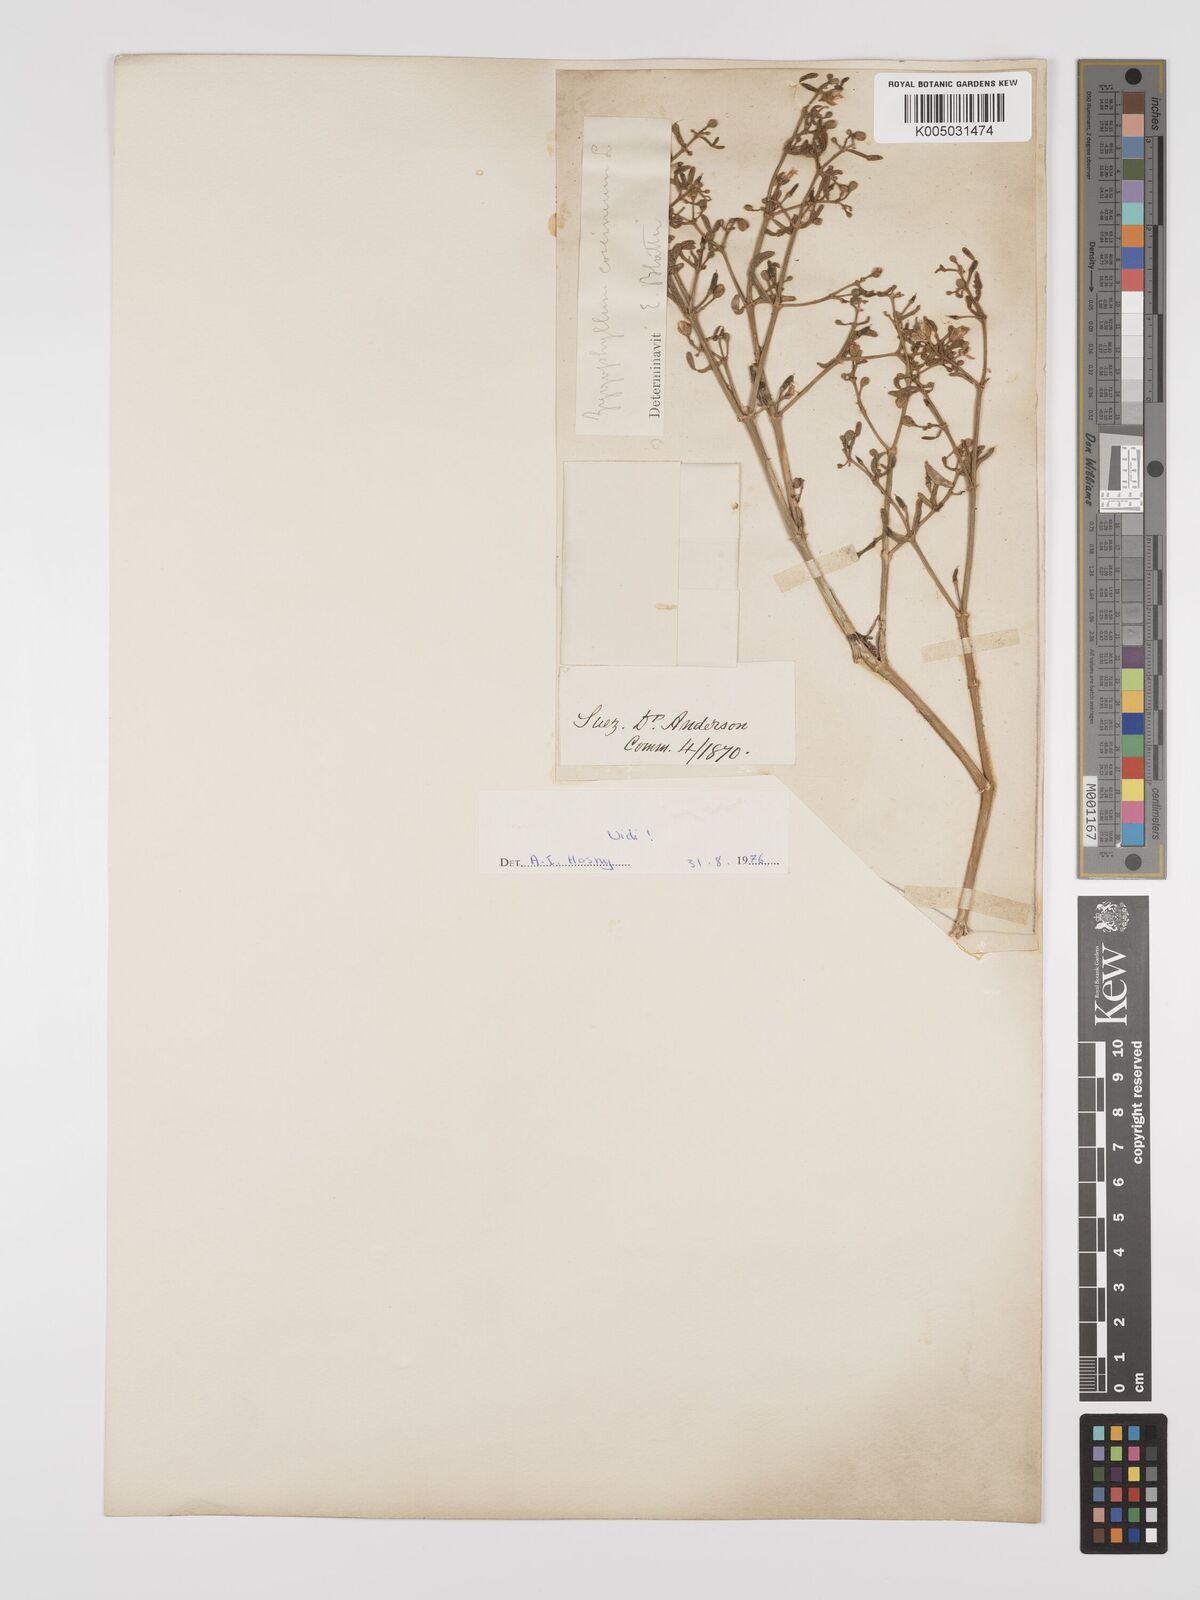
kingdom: Plantae
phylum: Tracheophyta
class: Magnoliopsida
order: Zygophyllales
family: Zygophyllaceae
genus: Tetraena
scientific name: Tetraena coccinea
